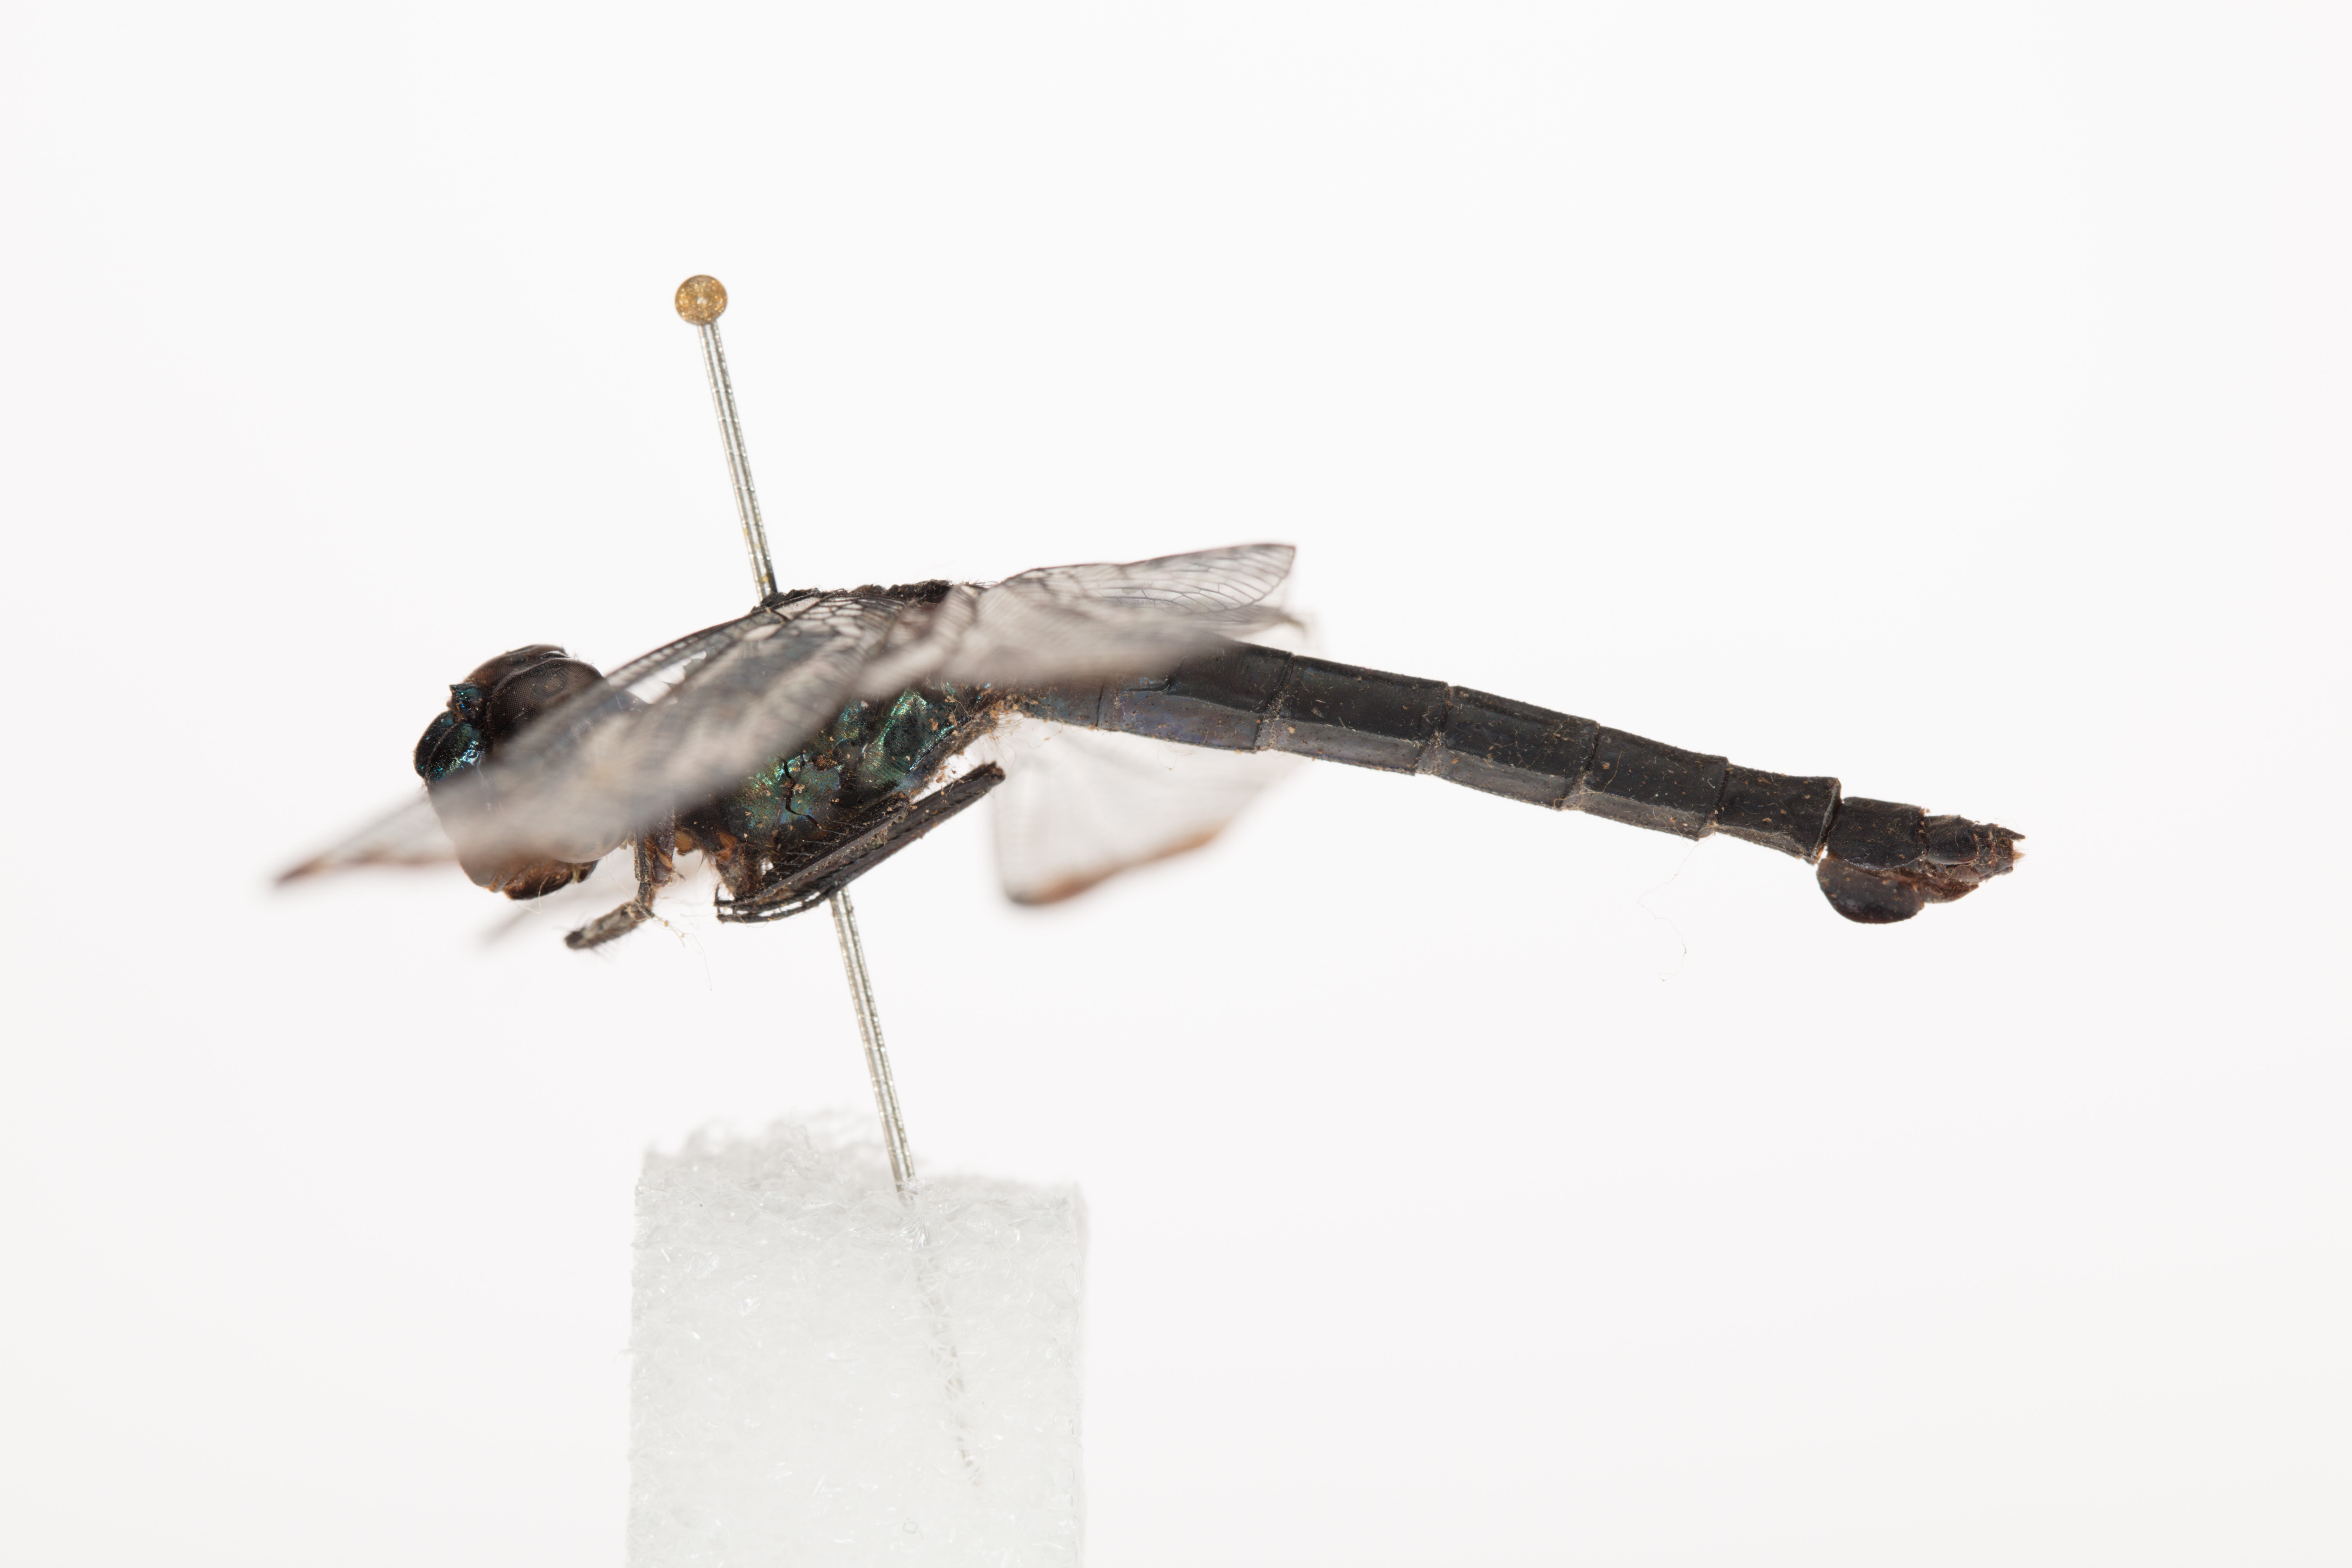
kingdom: Animalia
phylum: Arthropoda
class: Insecta
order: Odonata
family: Libellulidae
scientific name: Libellulidae
